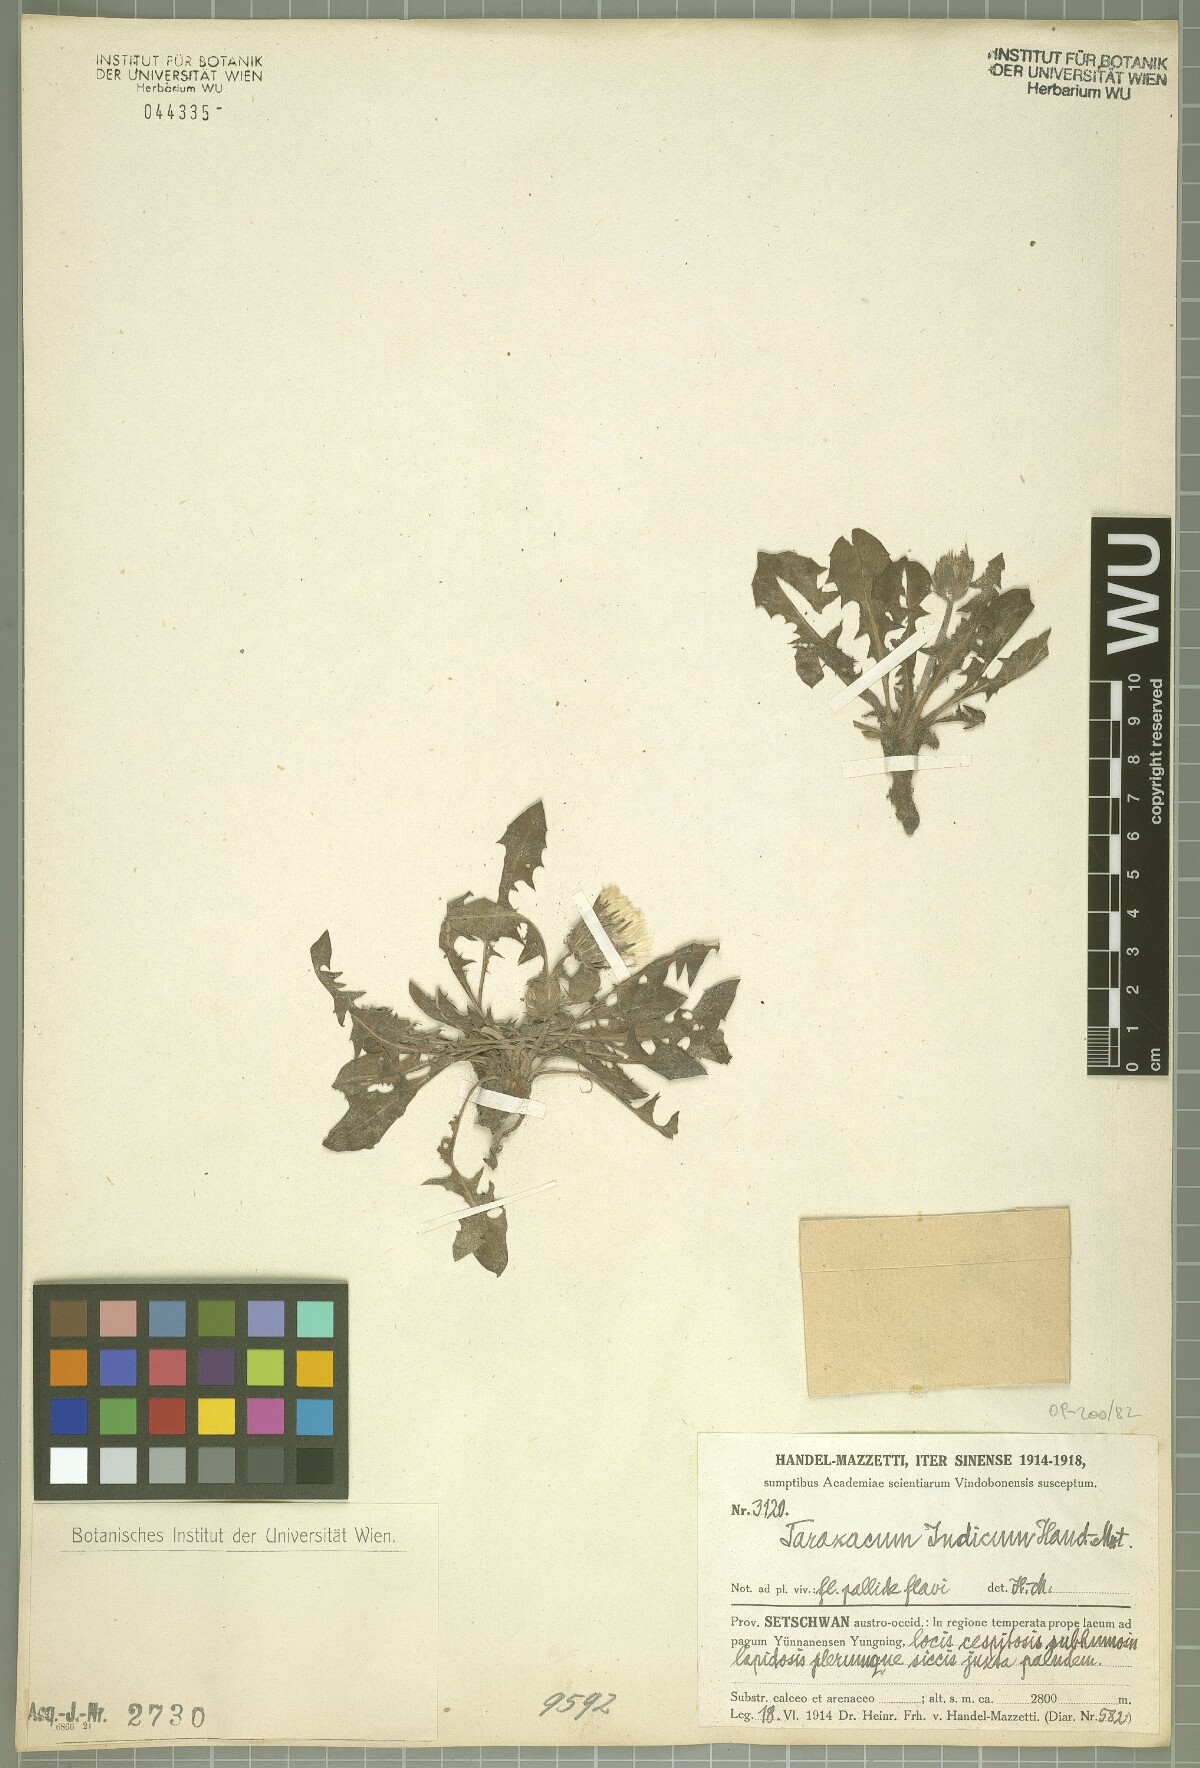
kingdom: Plantae
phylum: Tracheophyta
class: Magnoliopsida
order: Asterales
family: Asteraceae
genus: Taraxacum
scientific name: Taraxacum indicum
